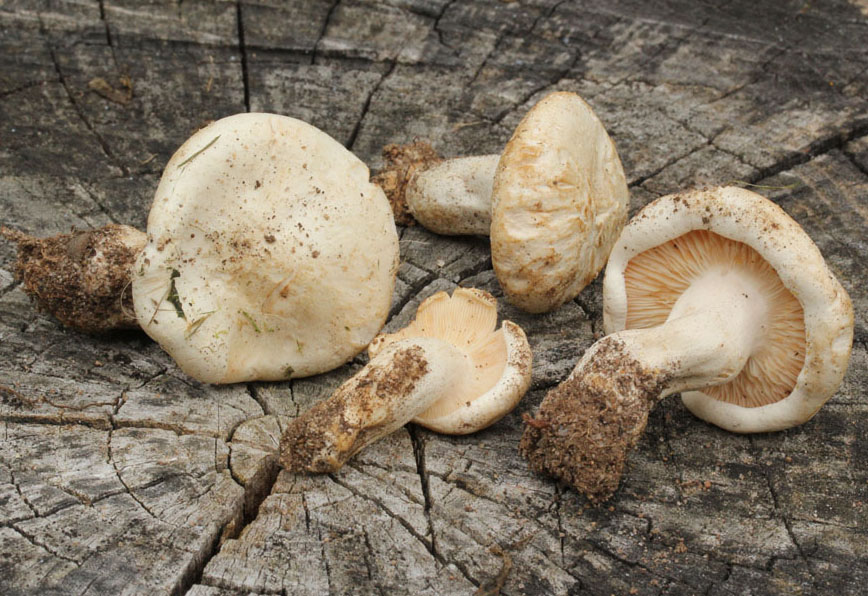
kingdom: Fungi
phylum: Basidiomycota
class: Agaricomycetes
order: Agaricales
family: Tricholomataceae
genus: Aspropaxillus
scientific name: Aspropaxillus giganteus
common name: kæmpe-tragtridderhat
